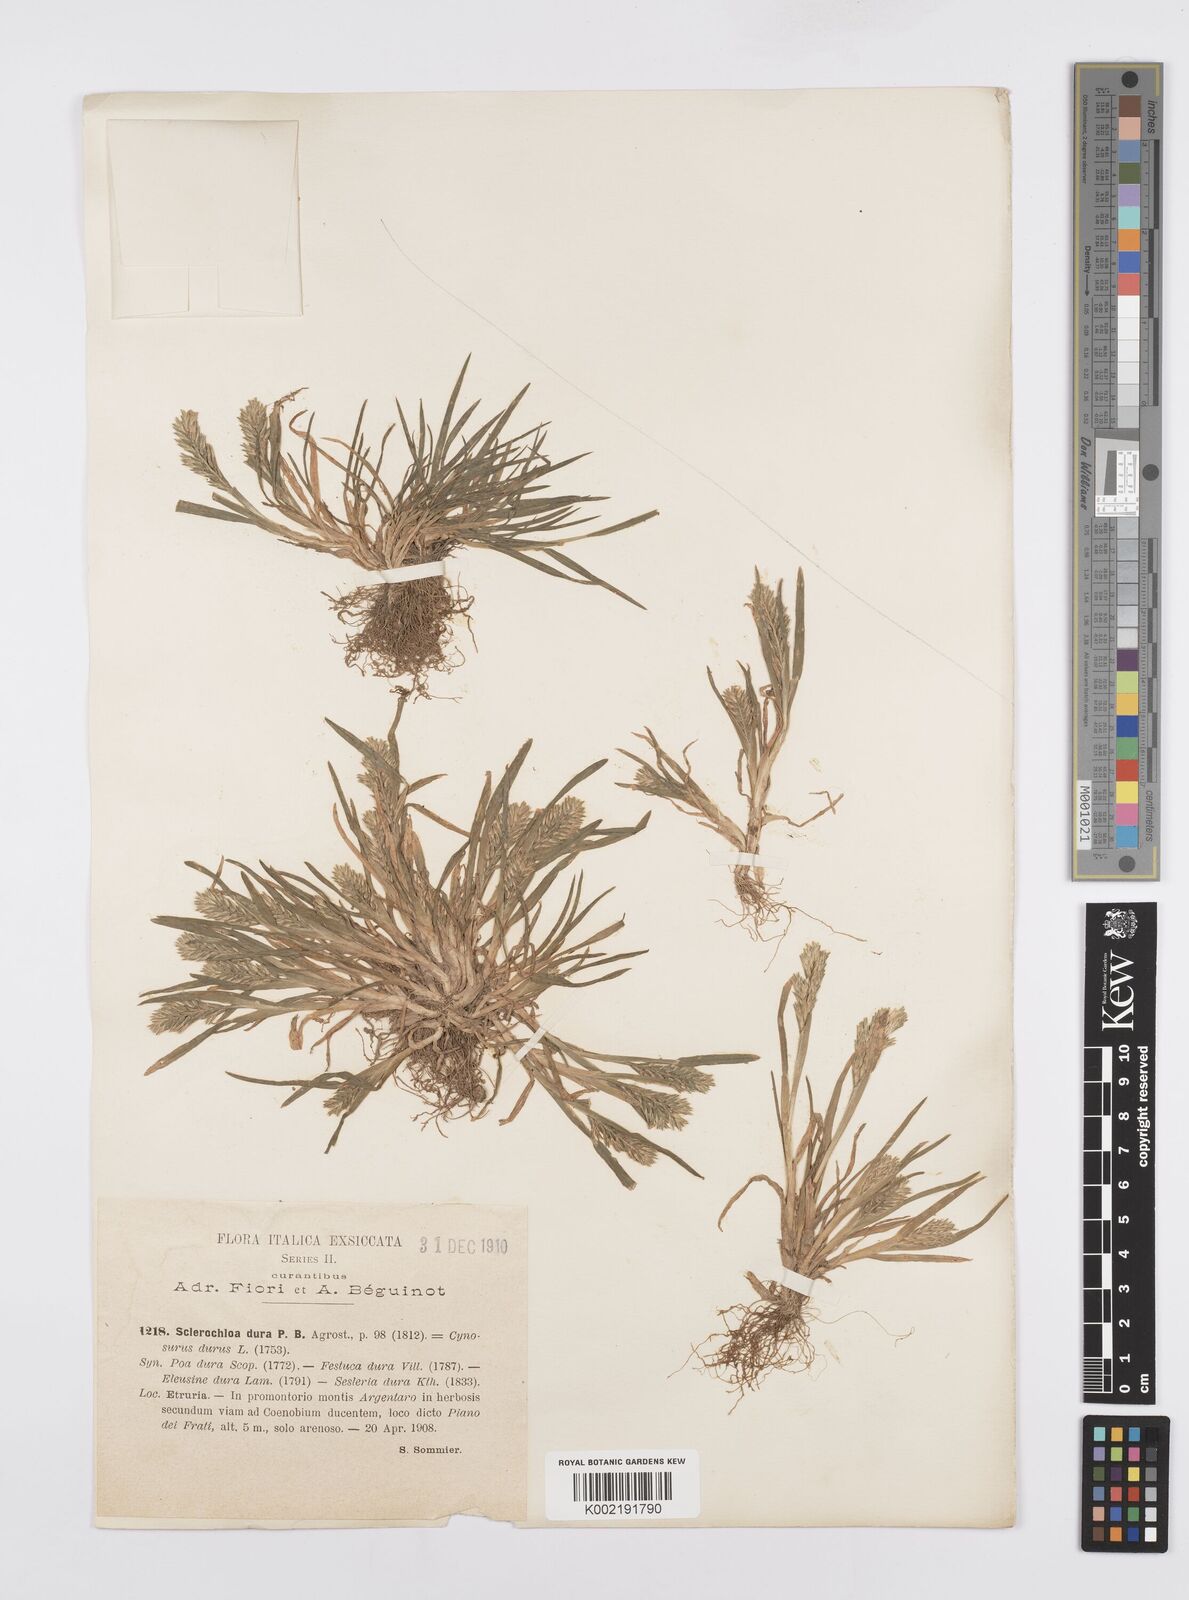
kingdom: Plantae
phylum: Tracheophyta
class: Liliopsida
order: Poales
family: Poaceae
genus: Sclerochloa
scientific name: Sclerochloa dura
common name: Common hardgrass
